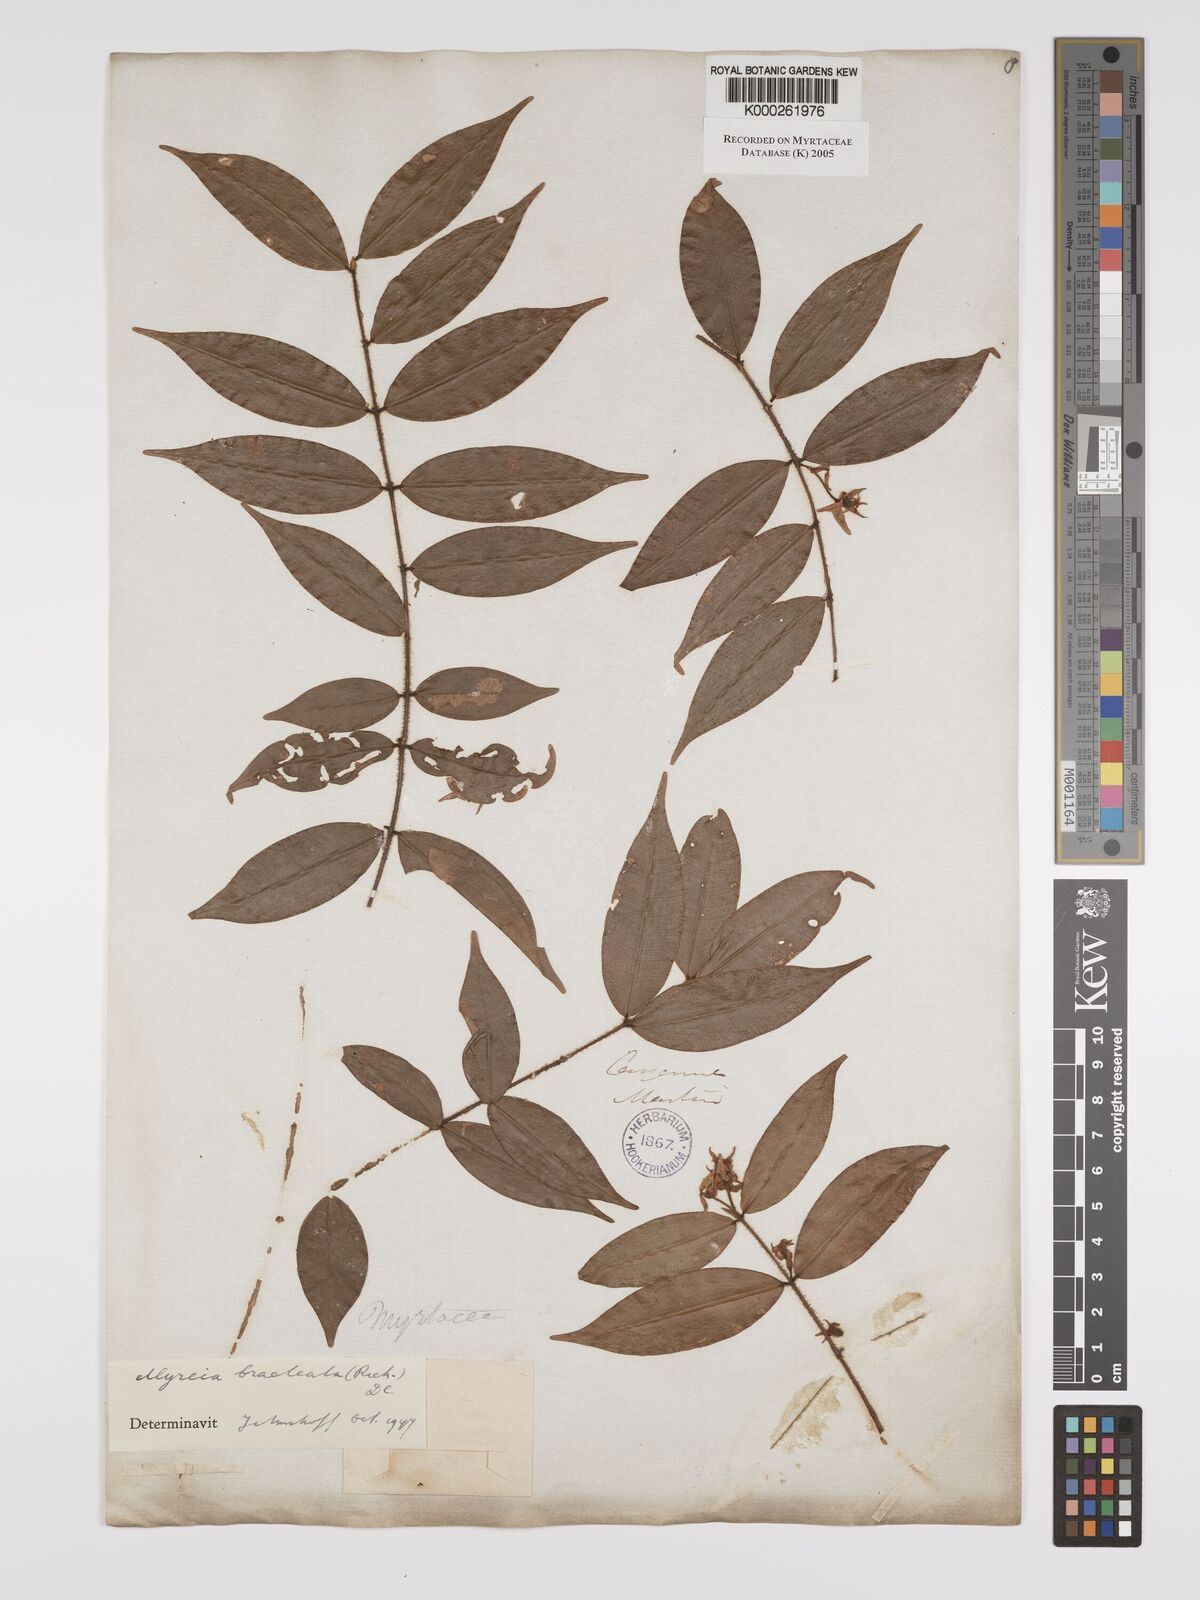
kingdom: Plantae
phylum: Tracheophyta
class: Magnoliopsida
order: Myrtales
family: Myrtaceae
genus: Myrcia
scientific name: Myrcia bracteata
